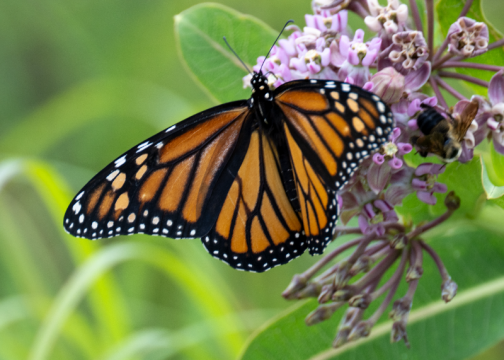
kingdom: Animalia
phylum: Arthropoda
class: Insecta
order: Lepidoptera
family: Nymphalidae
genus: Danaus
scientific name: Danaus plexippus
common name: Monarch
